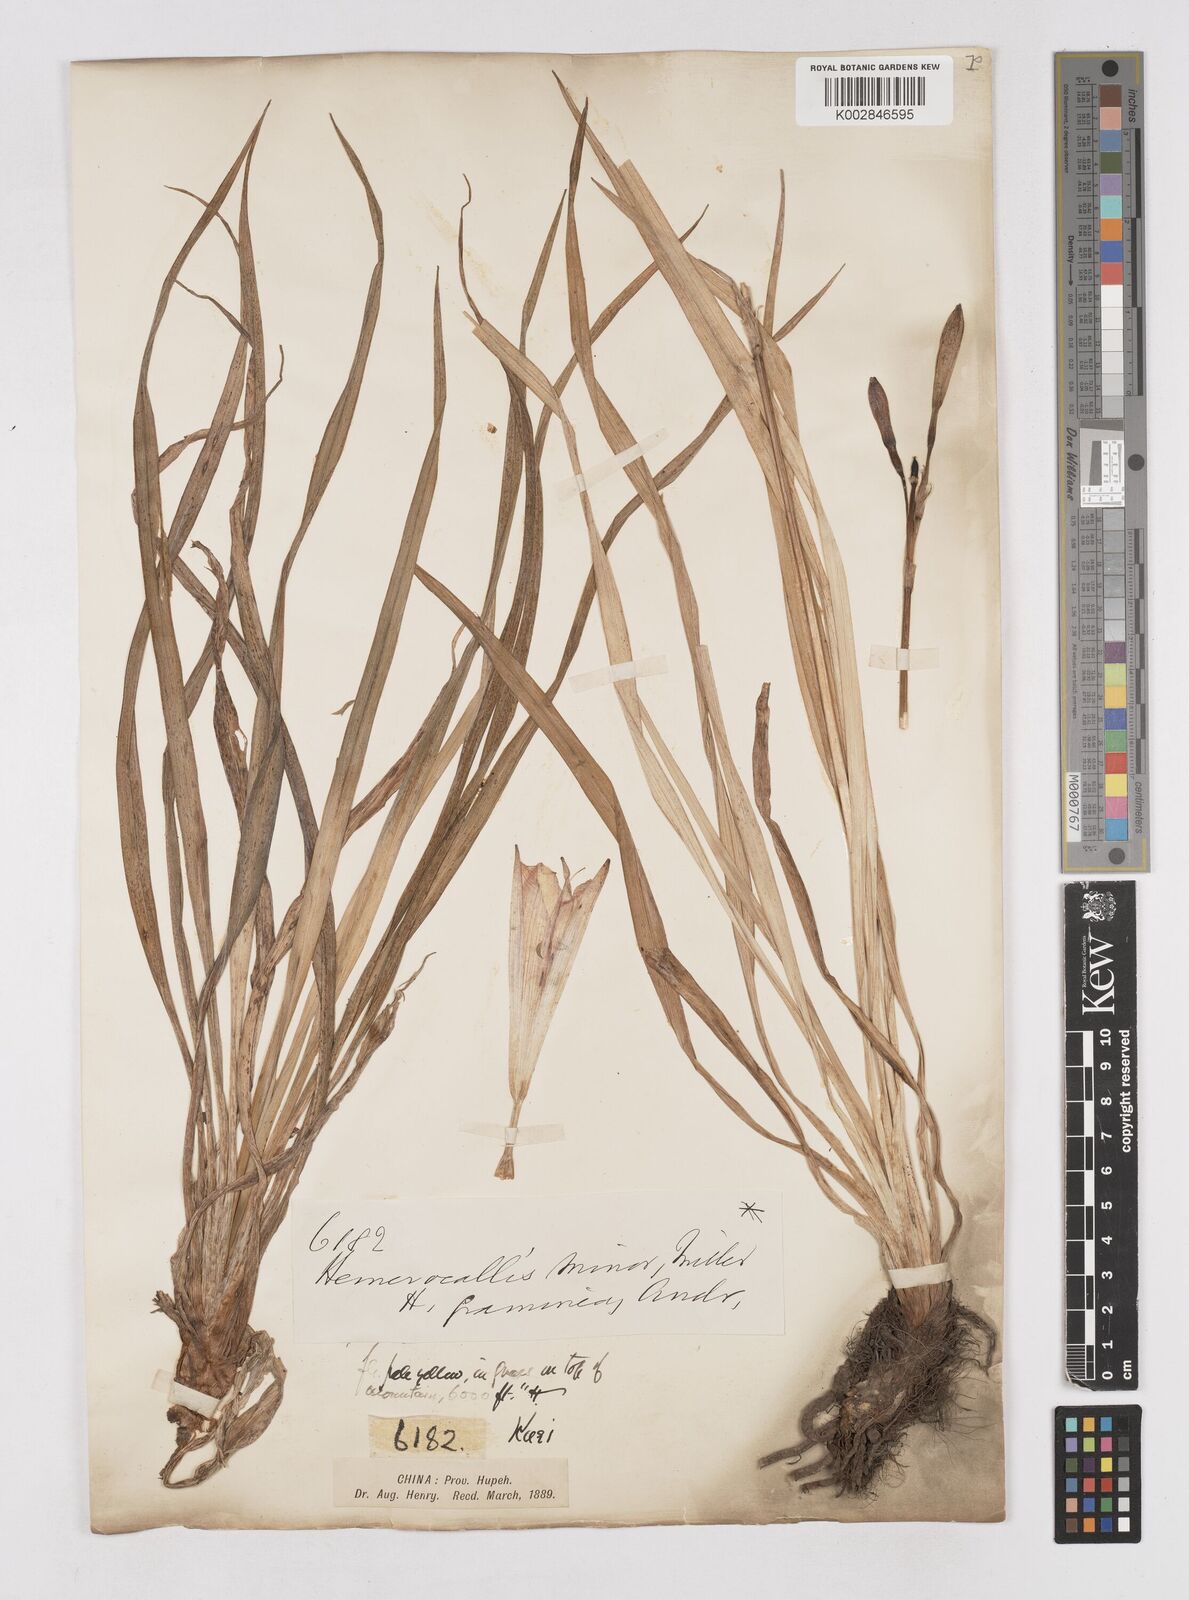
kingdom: Plantae
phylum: Tracheophyta
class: Liliopsida
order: Asparagales
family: Asphodelaceae
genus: Hemerocallis
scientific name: Hemerocallis minor
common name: Small daylily
